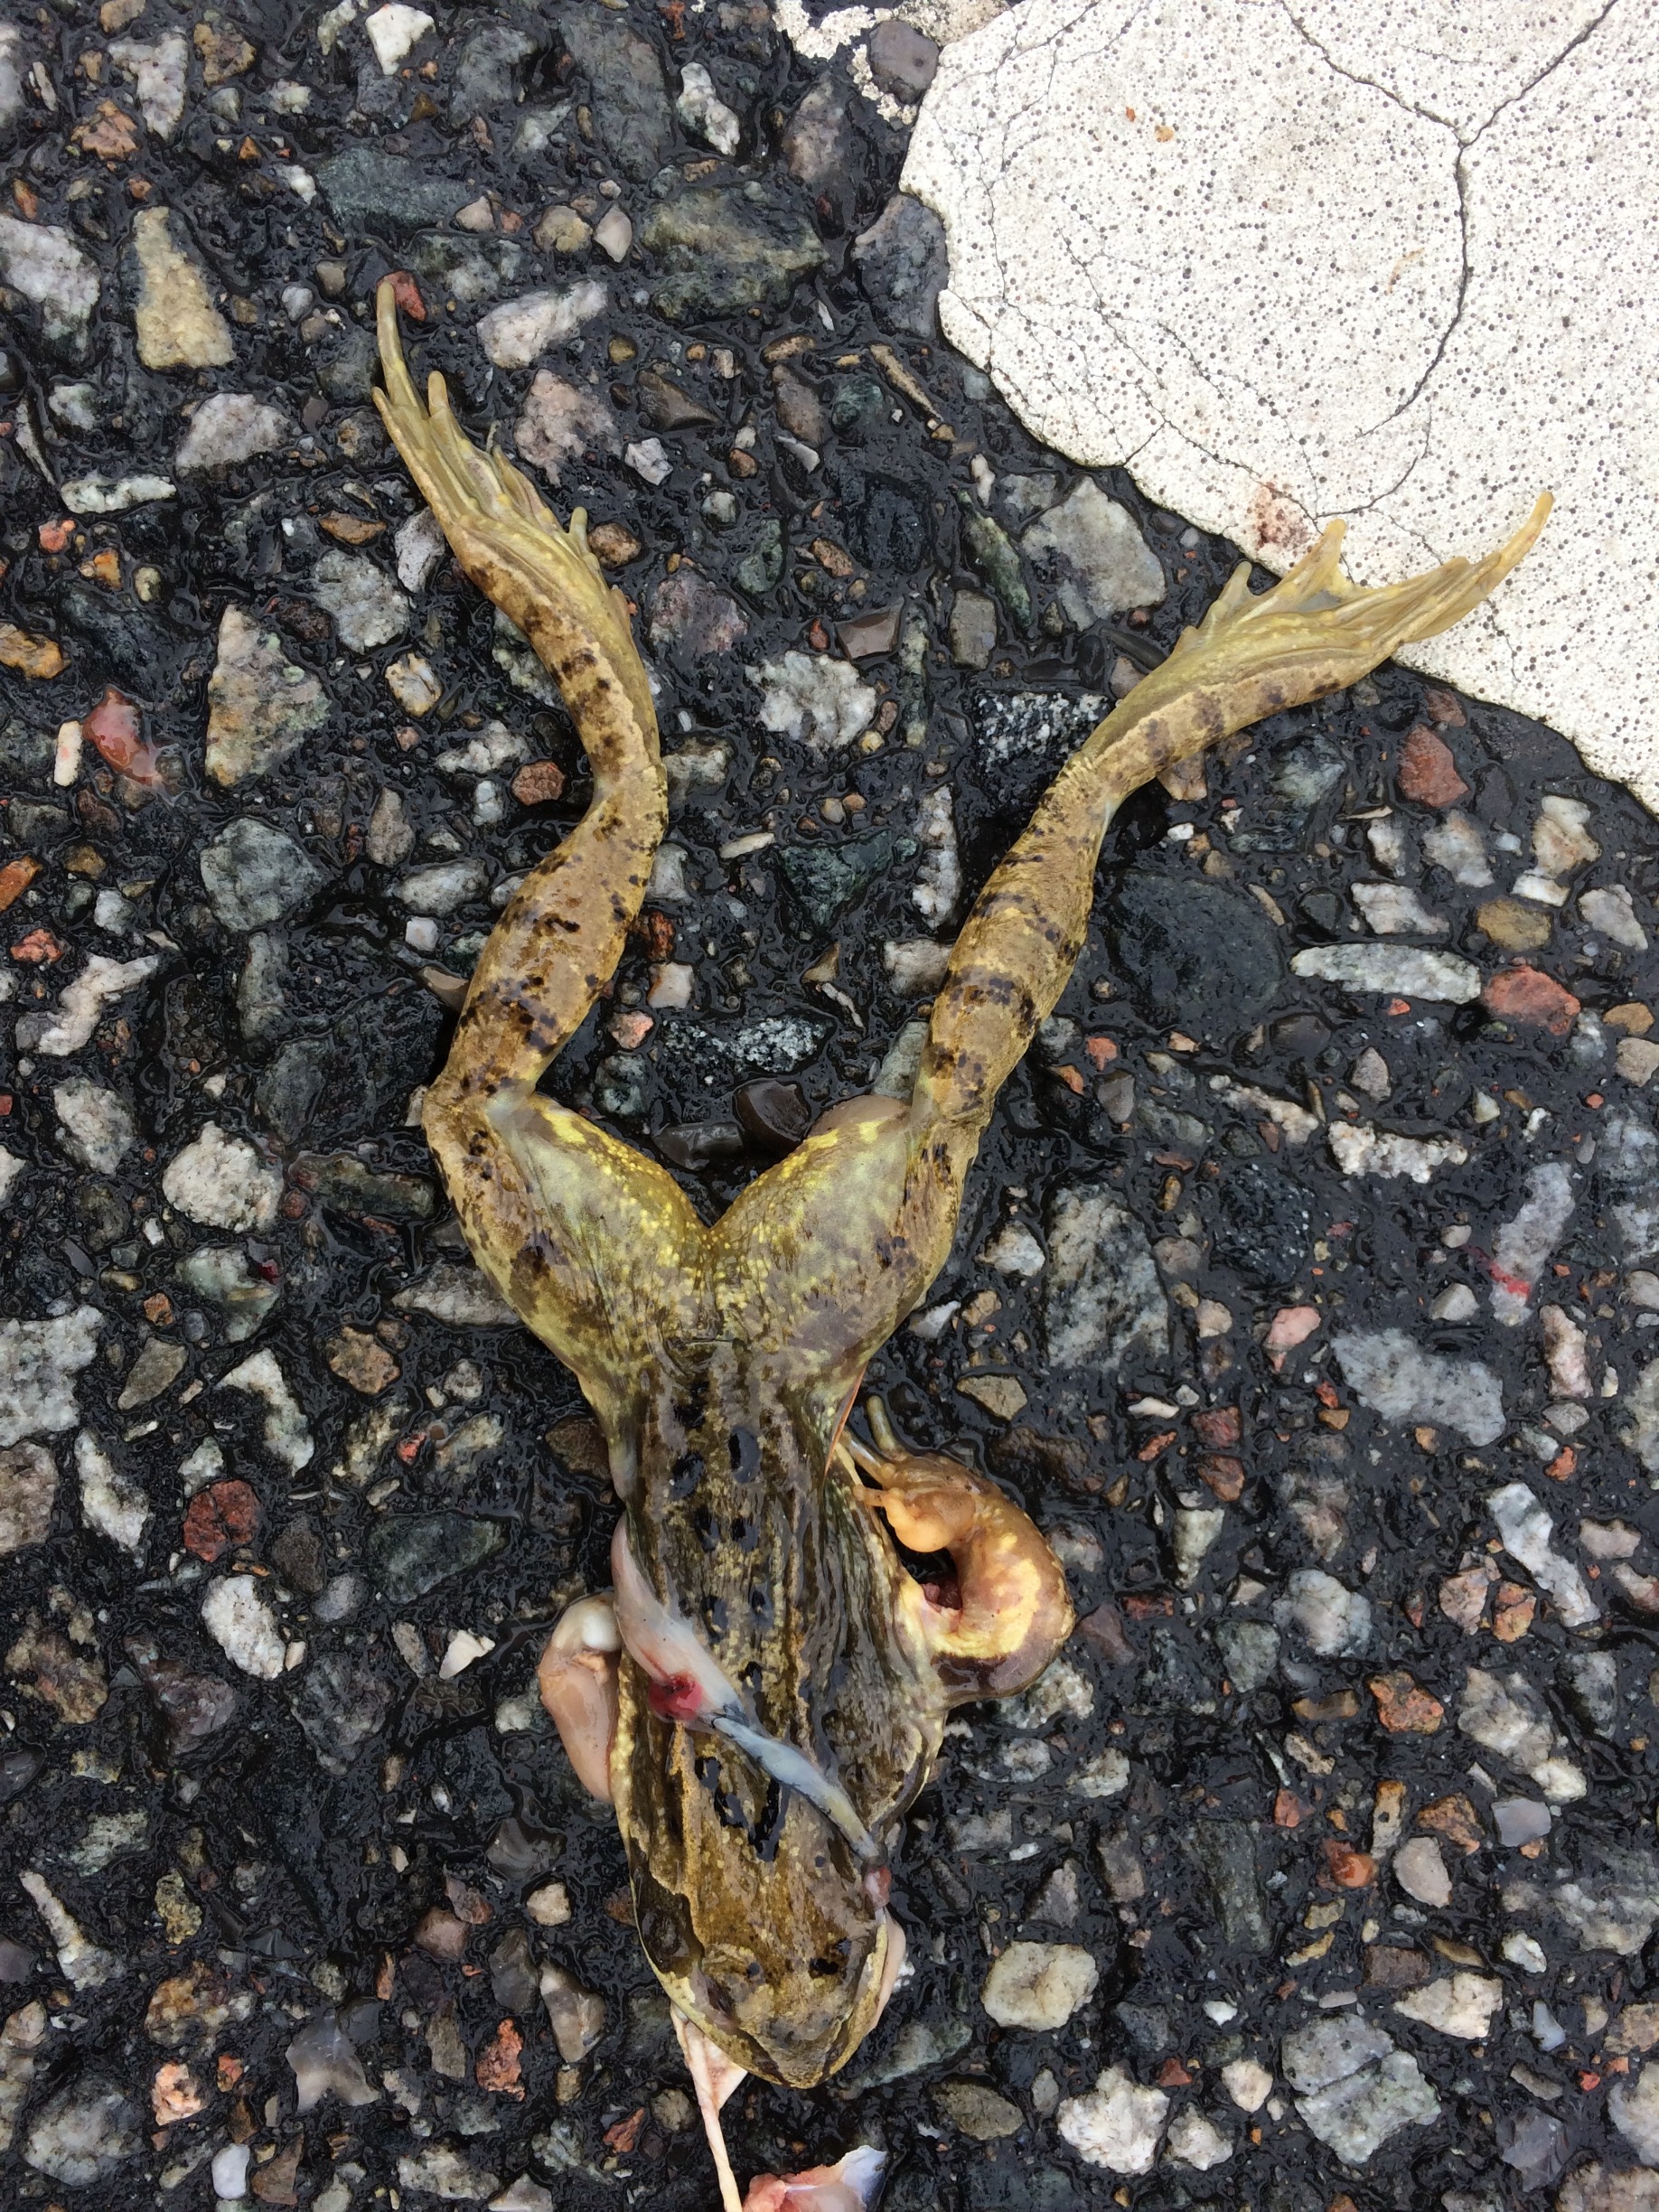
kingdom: Animalia
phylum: Chordata
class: Amphibia
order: Anura
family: Ranidae
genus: Rana
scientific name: Rana temporaria
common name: Butsnudet frø
